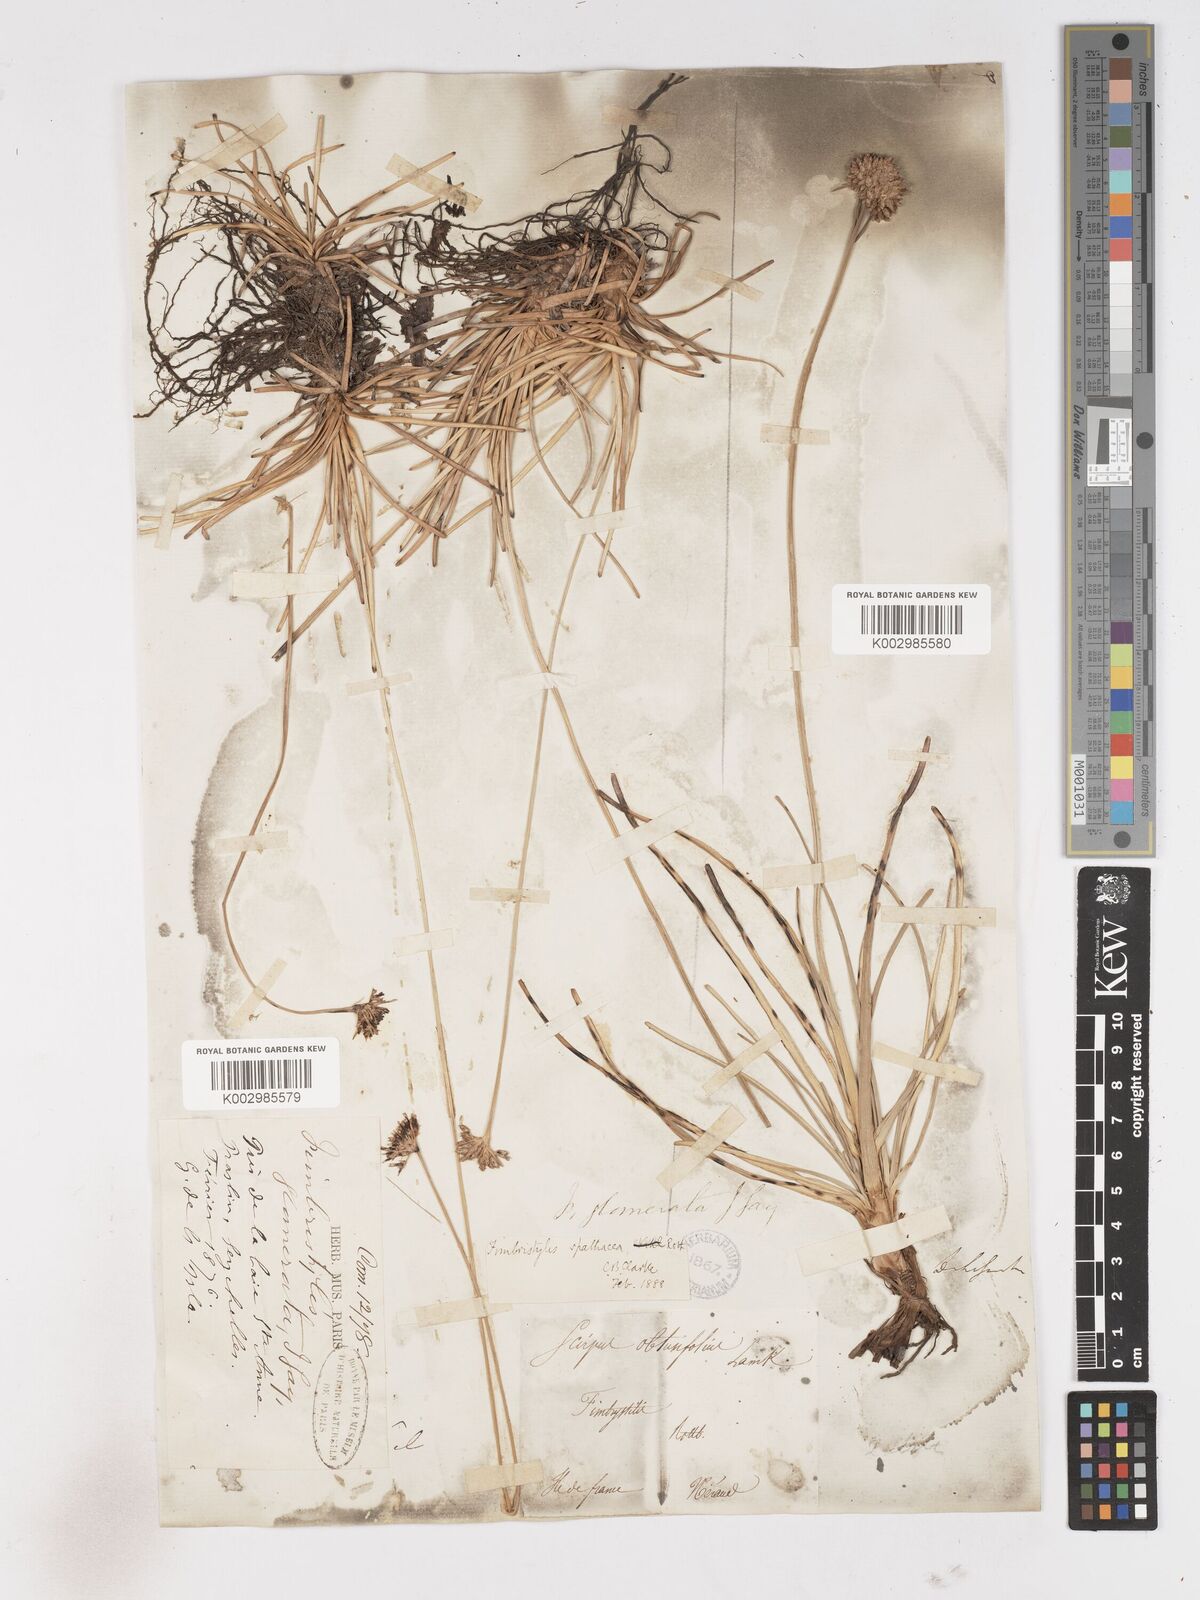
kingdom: Plantae
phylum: Tracheophyta
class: Liliopsida
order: Poales
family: Cyperaceae
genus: Fimbristylis
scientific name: Fimbristylis cymosa
